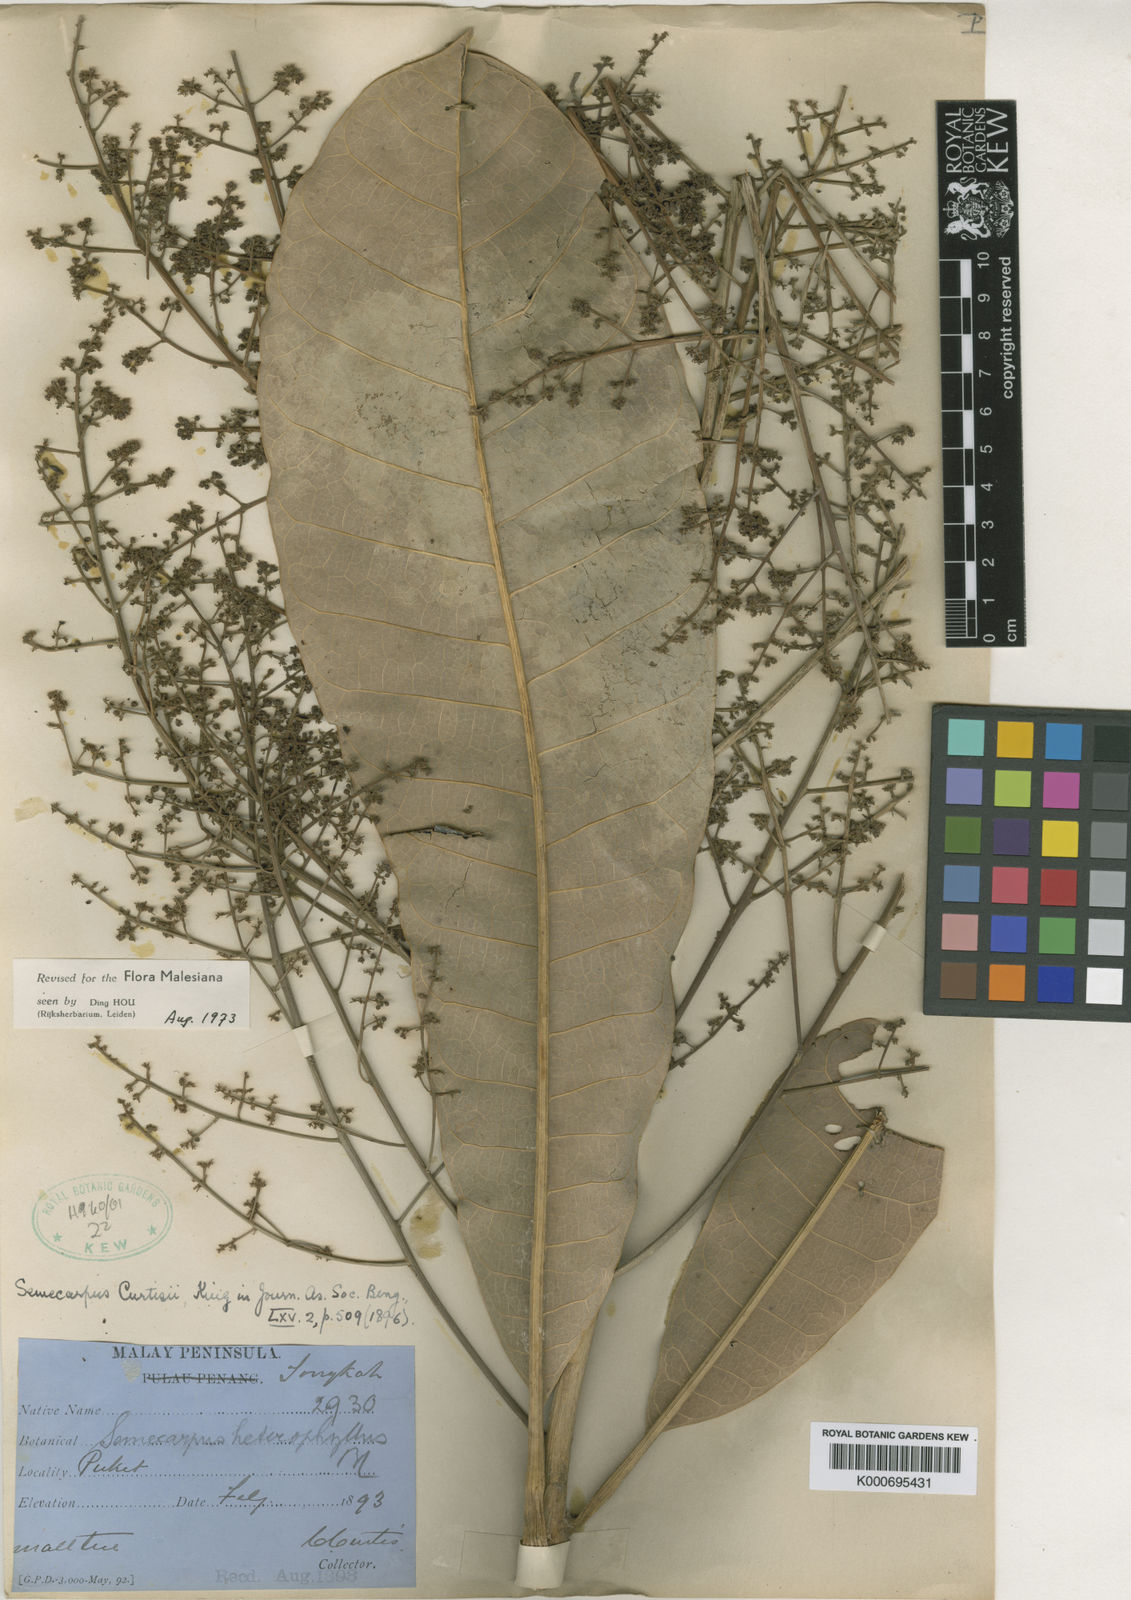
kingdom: Plantae
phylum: Tracheophyta
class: Magnoliopsida
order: Sapindales
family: Anacardiaceae
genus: Semecarpus
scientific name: Semecarpus curtisii
